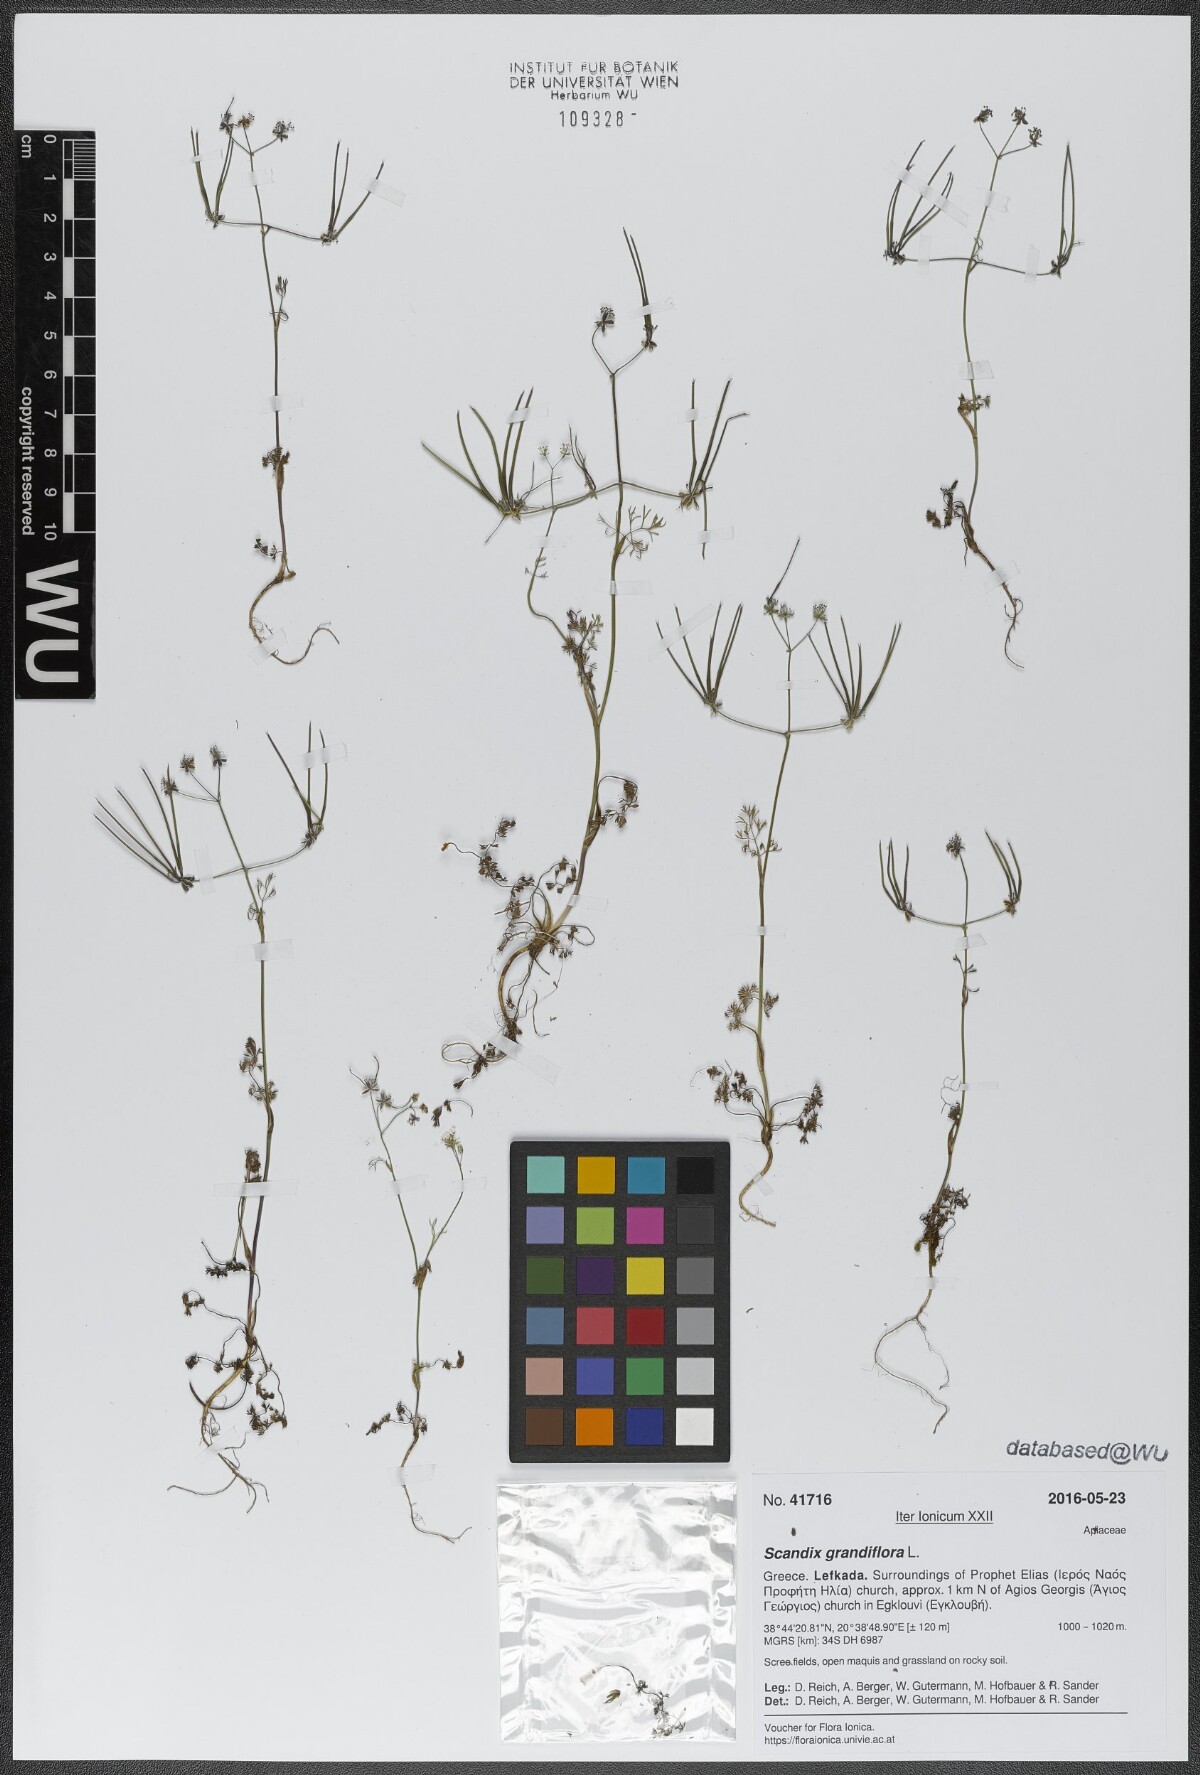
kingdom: Plantae
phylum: Tracheophyta
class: Magnoliopsida
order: Apiales
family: Apiaceae
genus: Scandix
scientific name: Scandix australis
